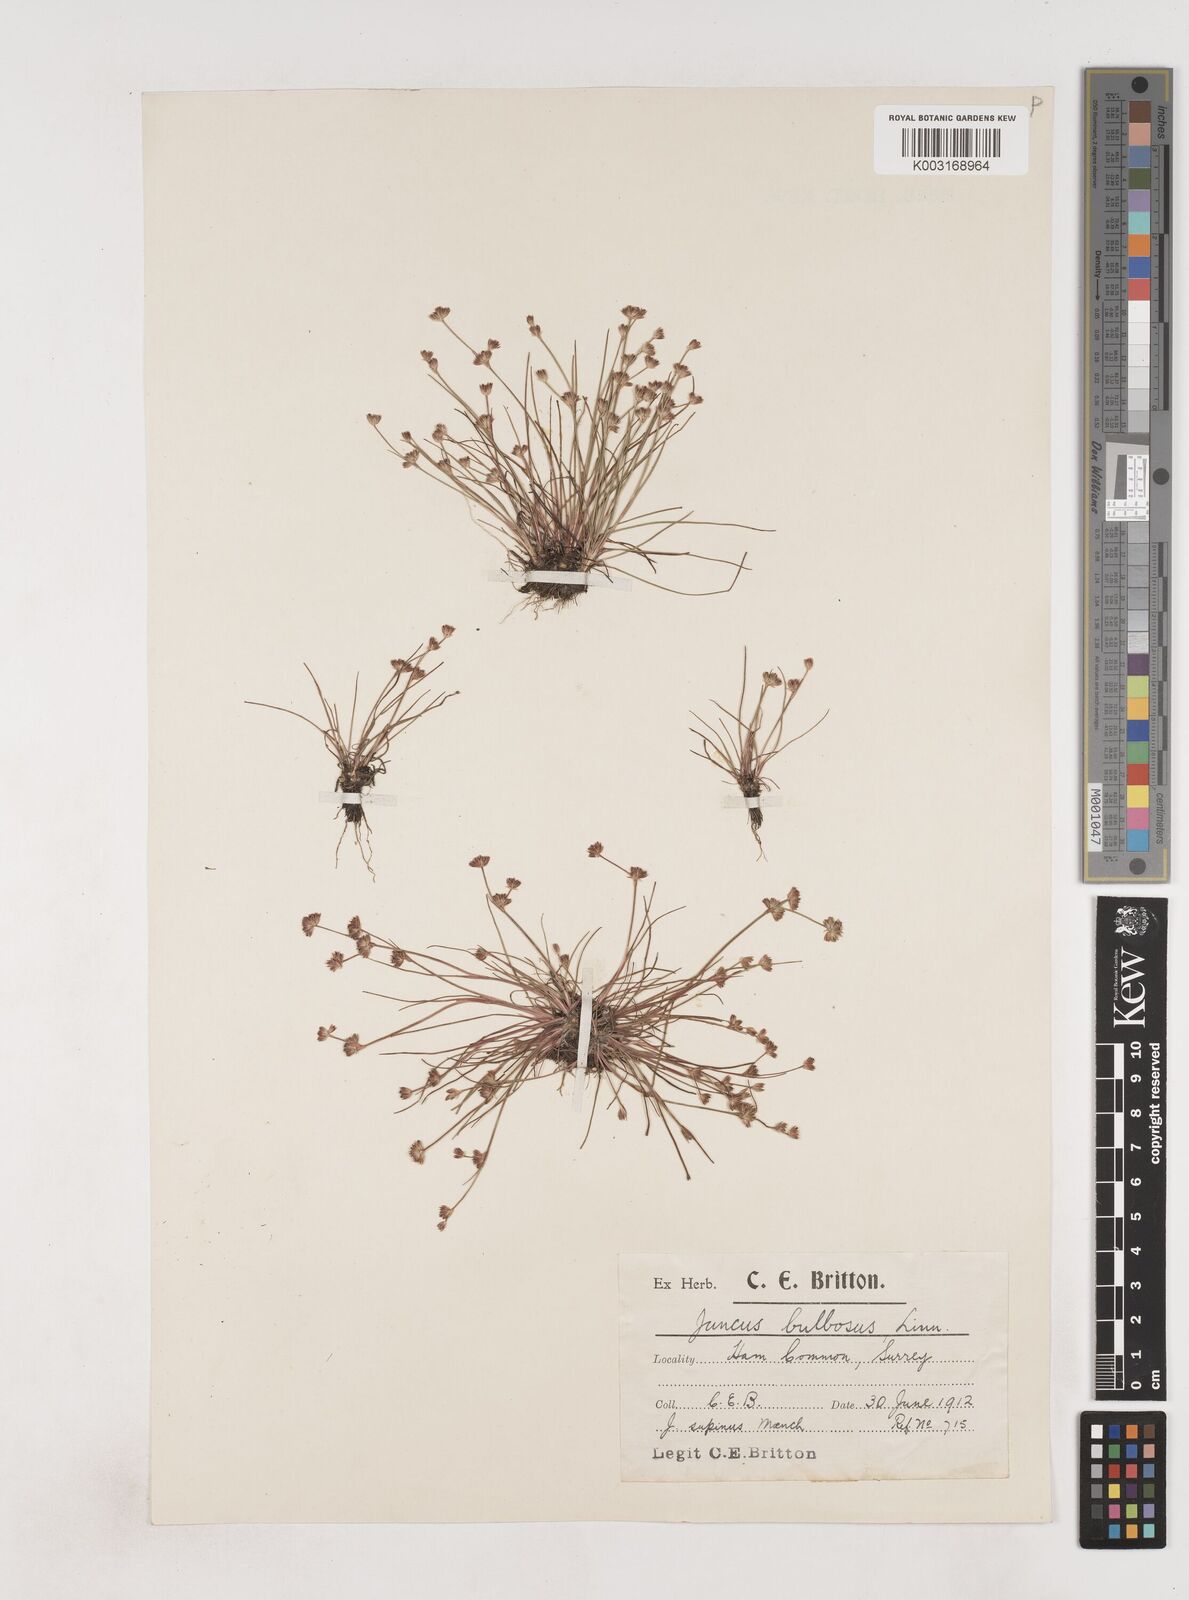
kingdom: Plantae
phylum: Tracheophyta
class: Liliopsida
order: Poales
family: Juncaceae
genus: Juncus
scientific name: Juncus bulbosus
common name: Bulbous rush
